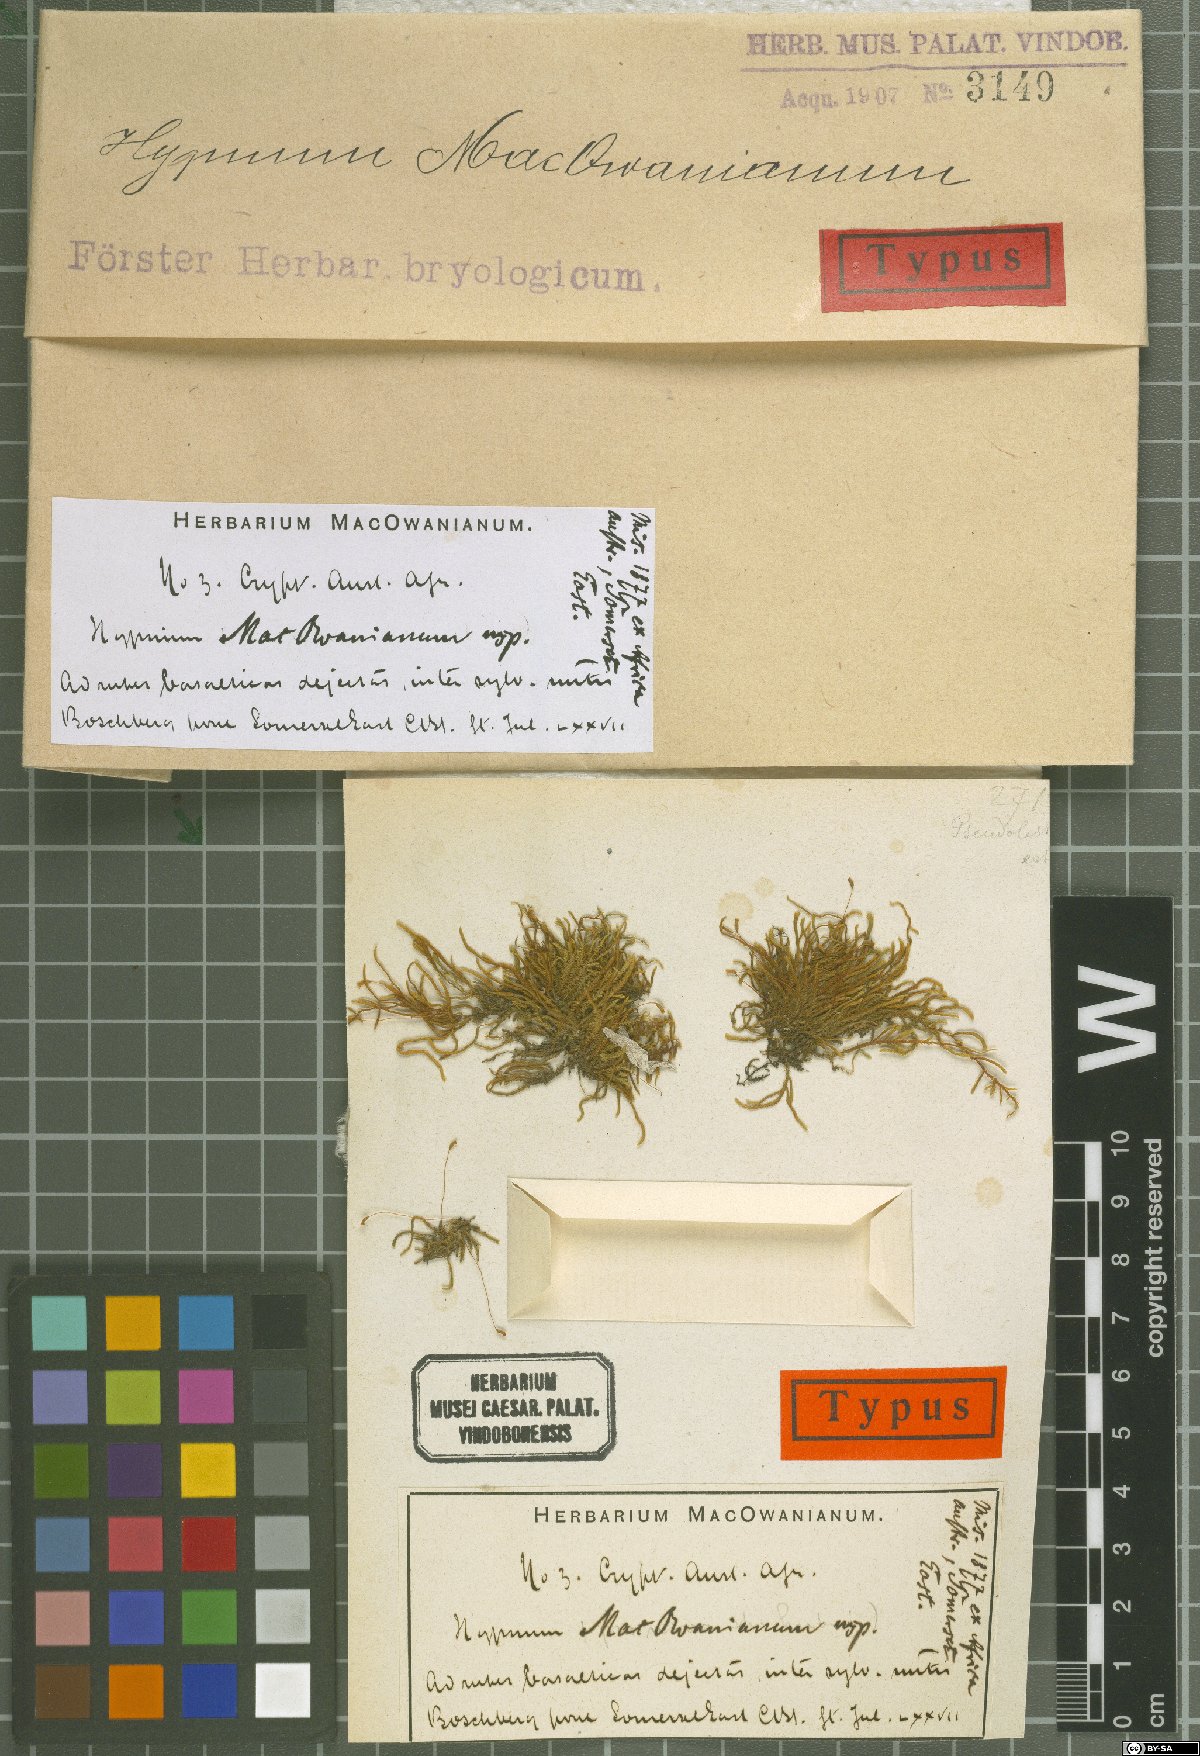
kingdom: Plantae
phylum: Bryophyta
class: Bryopsida
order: Hypnales
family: Brachytheciaceae
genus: Rhynchostegium
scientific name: Rhynchostegium macowanianum
